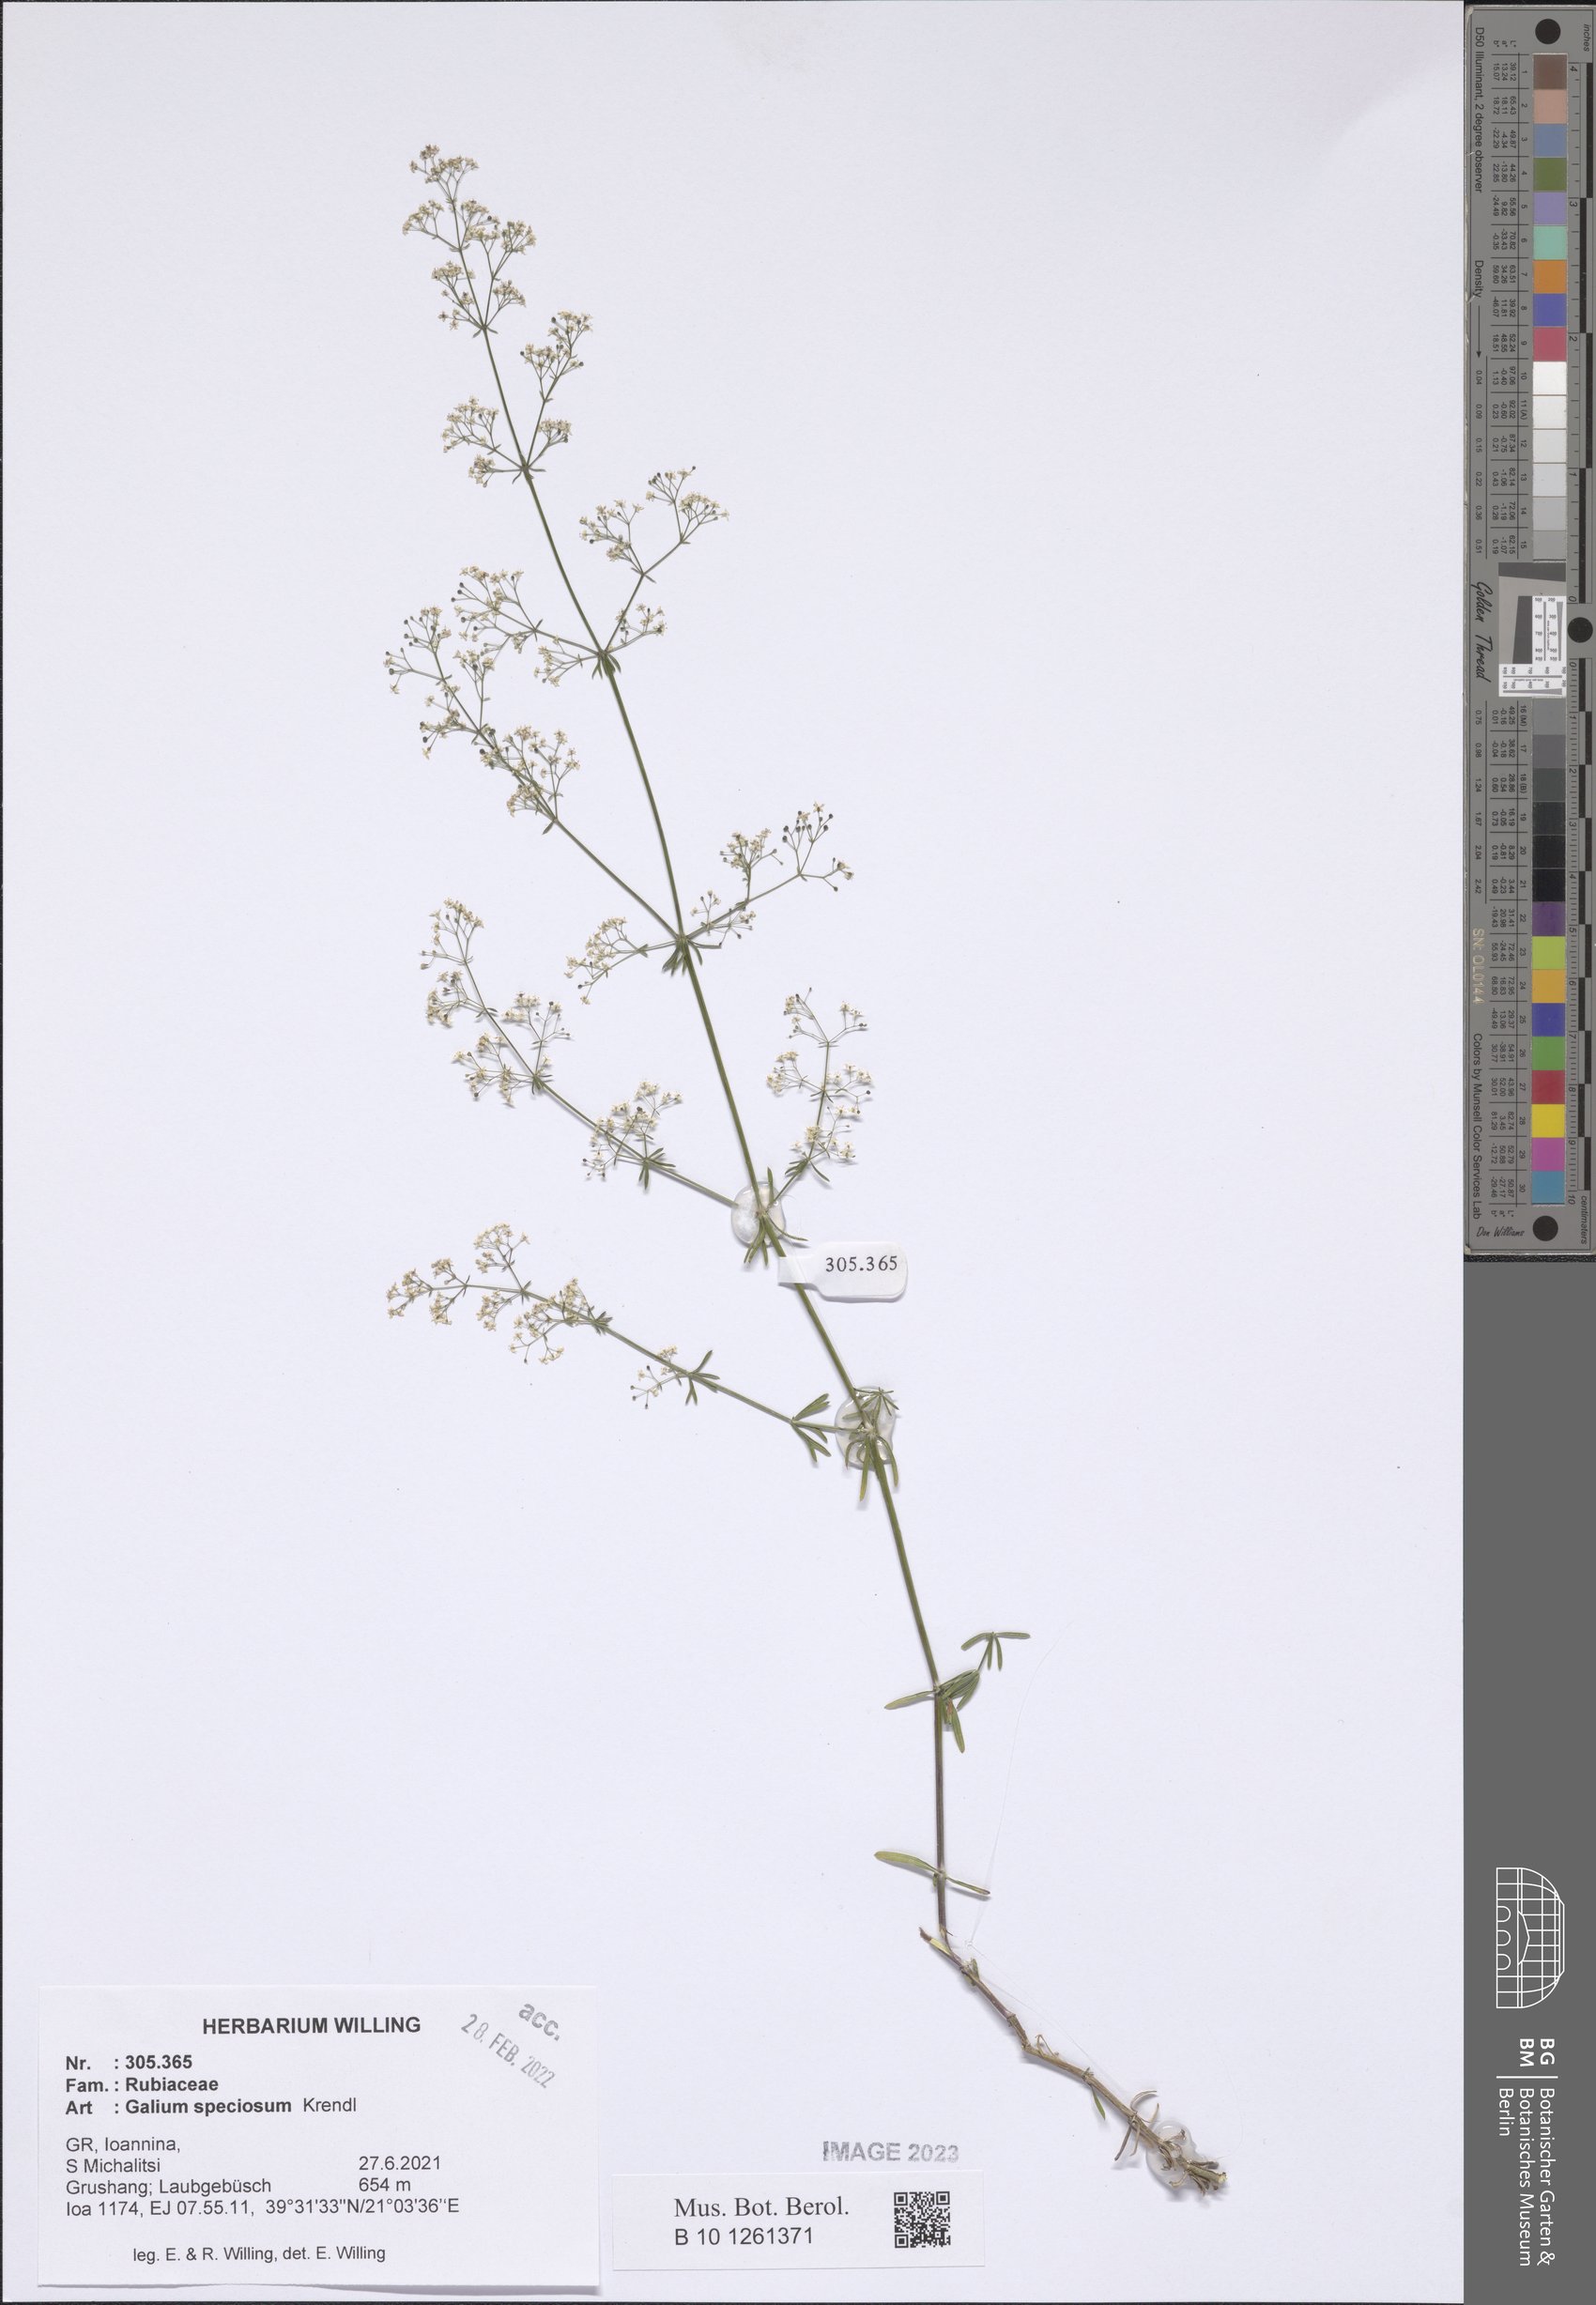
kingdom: Plantae
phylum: Tracheophyta
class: Magnoliopsida
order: Gentianales
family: Rubiaceae
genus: Galium
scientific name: Galium speciosum
